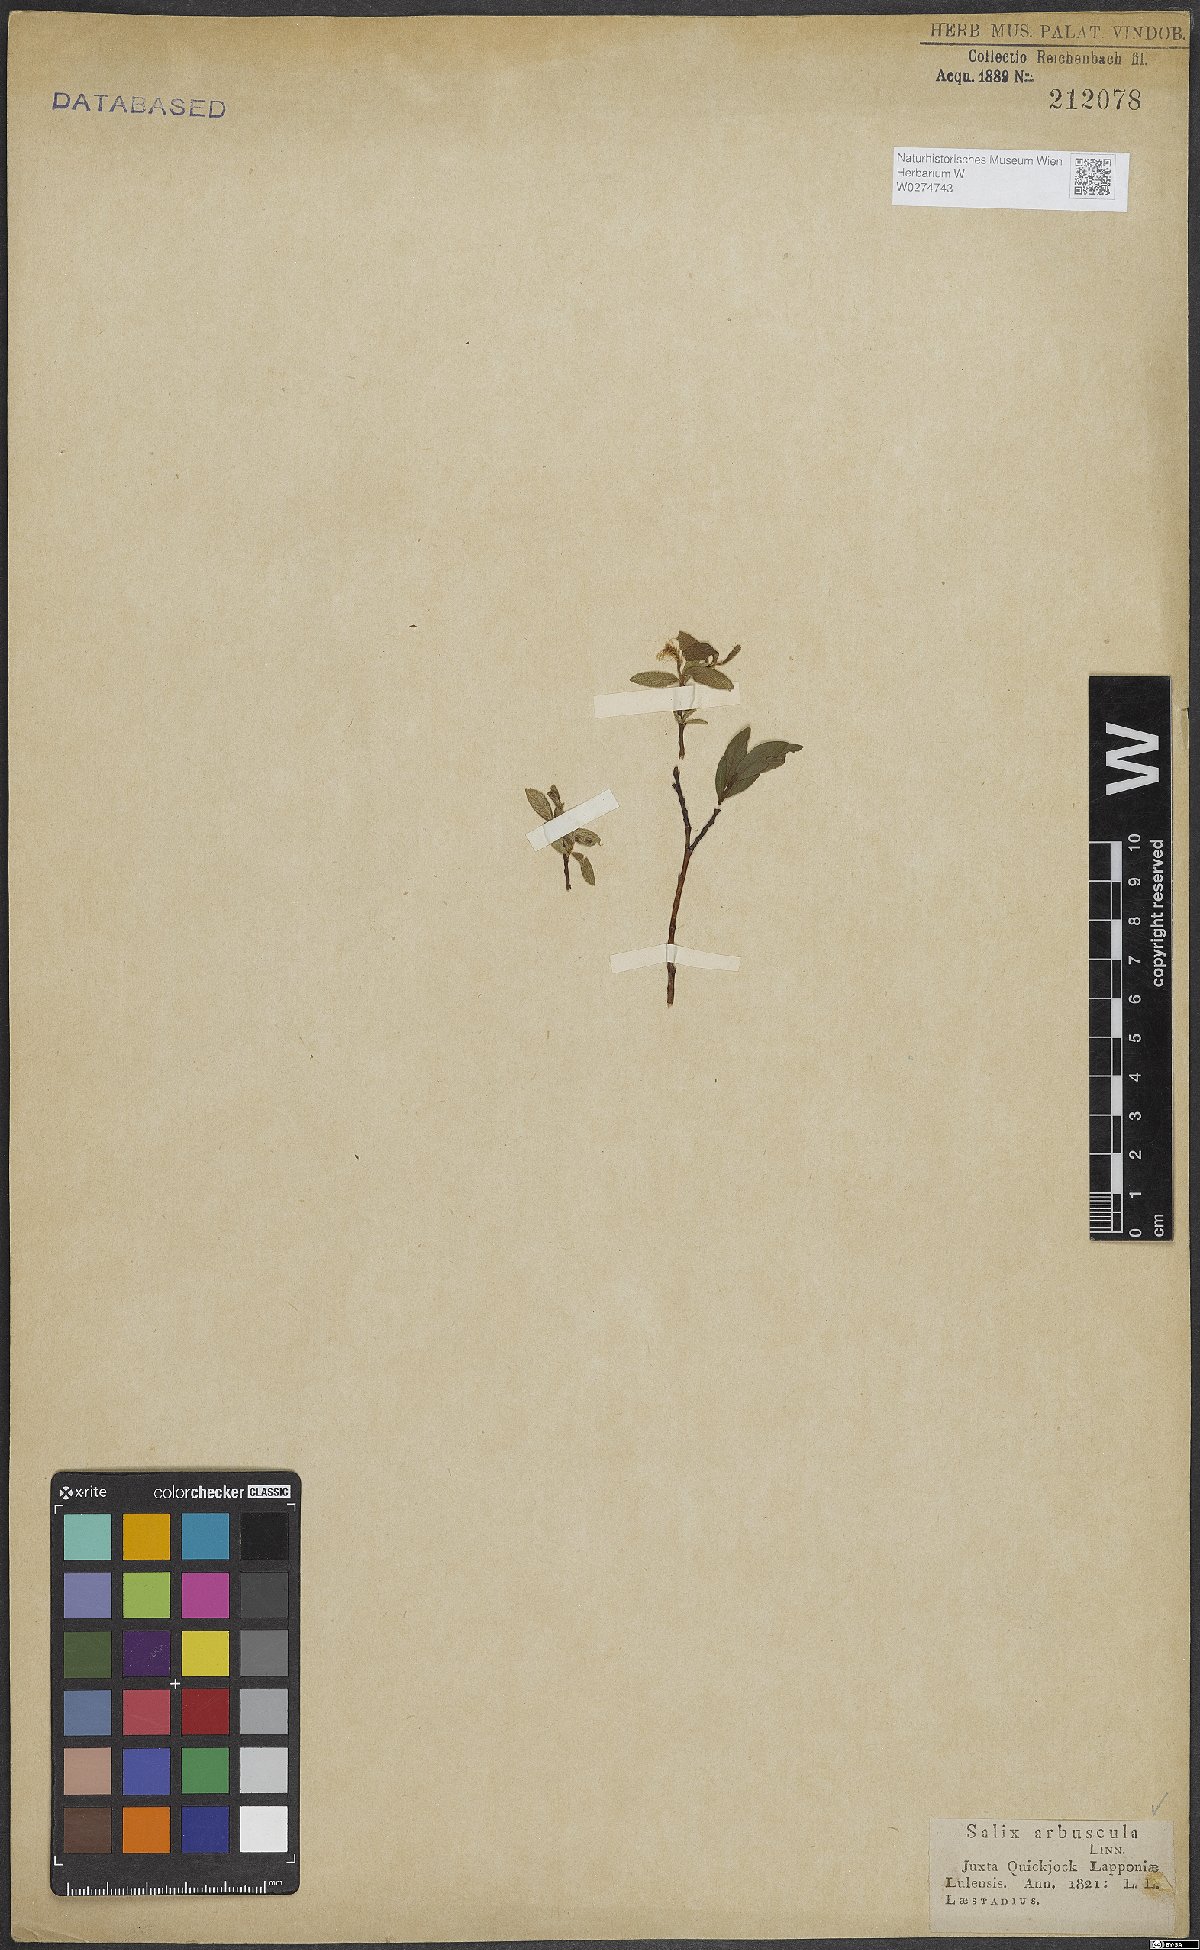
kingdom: Plantae
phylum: Tracheophyta
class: Magnoliopsida
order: Malpighiales
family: Salicaceae
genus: Salix
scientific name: Salix arbuscula
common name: Mountain willow
